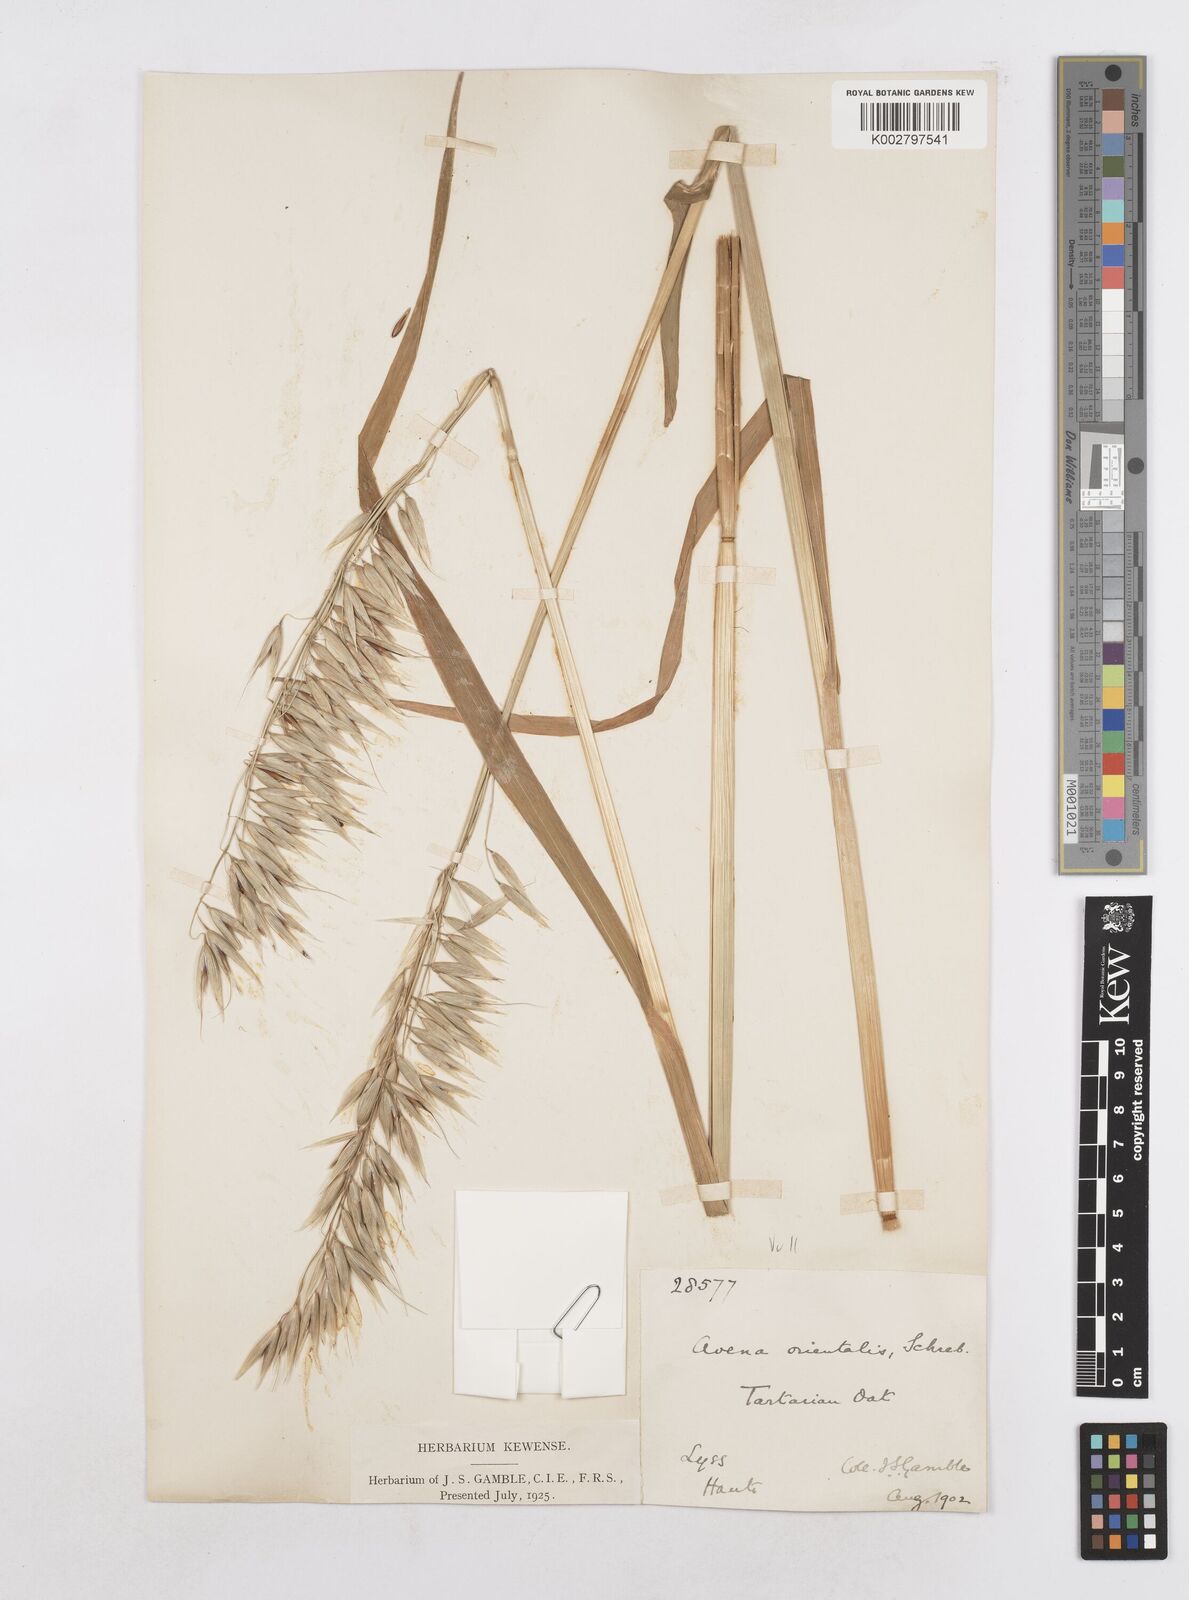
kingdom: Plantae
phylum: Tracheophyta
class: Liliopsida
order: Poales
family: Poaceae
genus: Avena
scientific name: Avena sativa
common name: Oat
